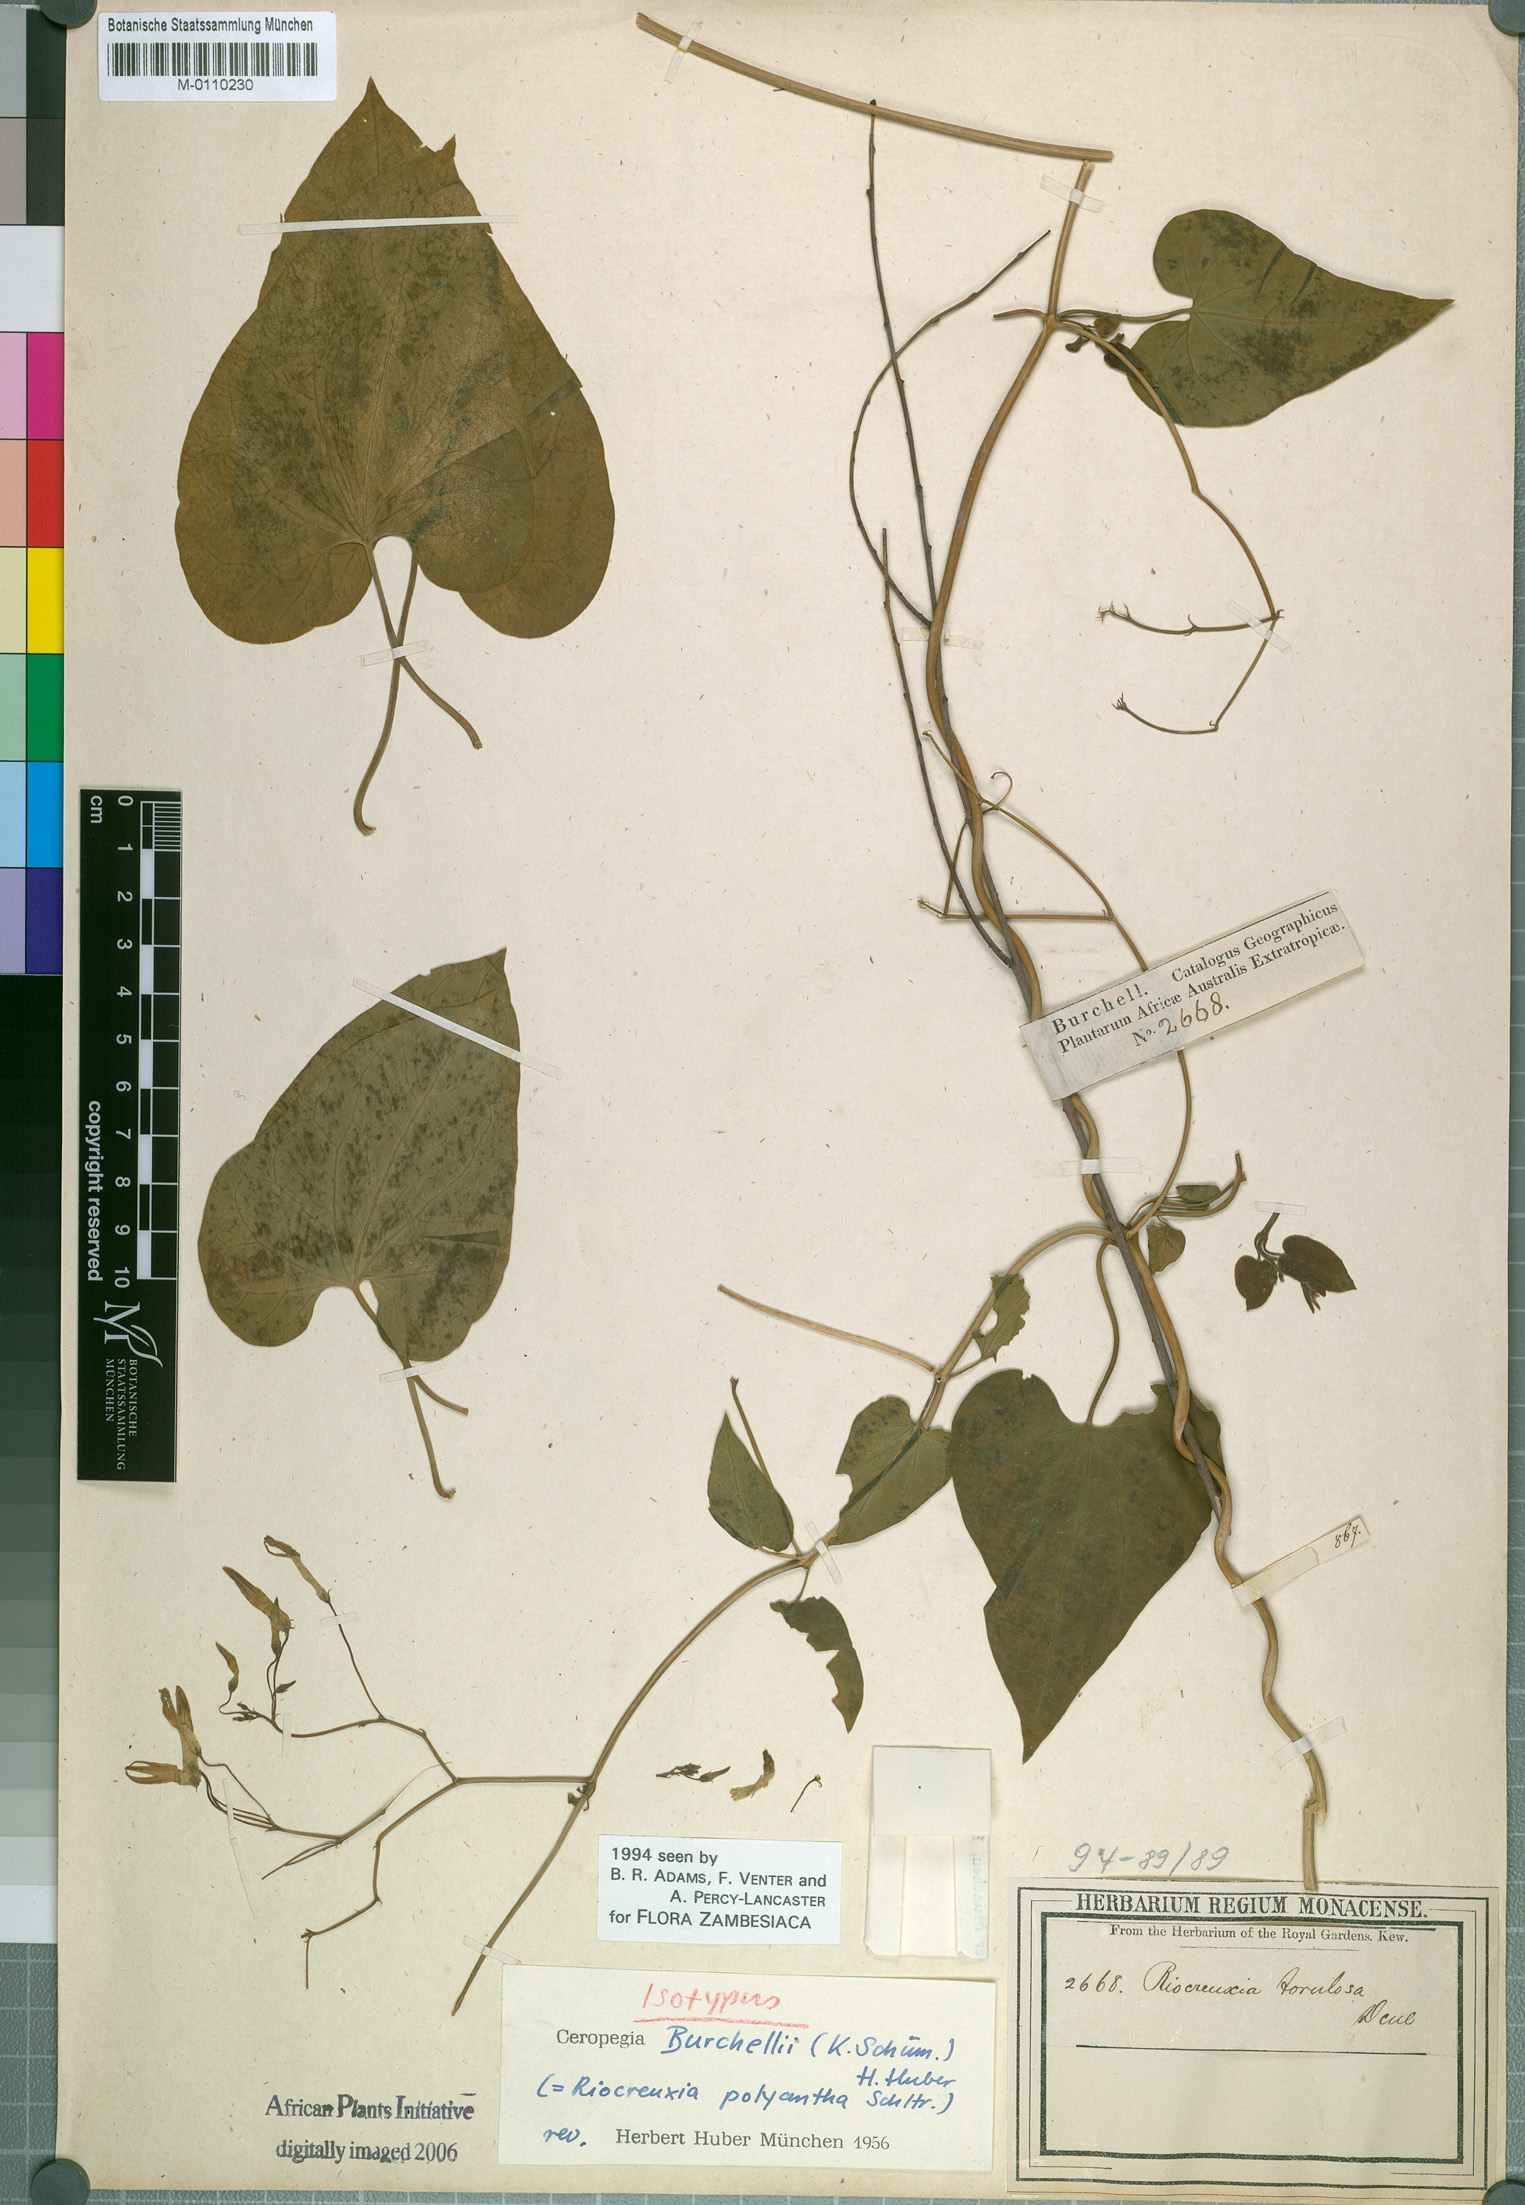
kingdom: Plantae
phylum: Tracheophyta
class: Magnoliopsida
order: Gentianales
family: Apocynaceae
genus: Riocreuxia
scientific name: Riocreuxia polyantha
